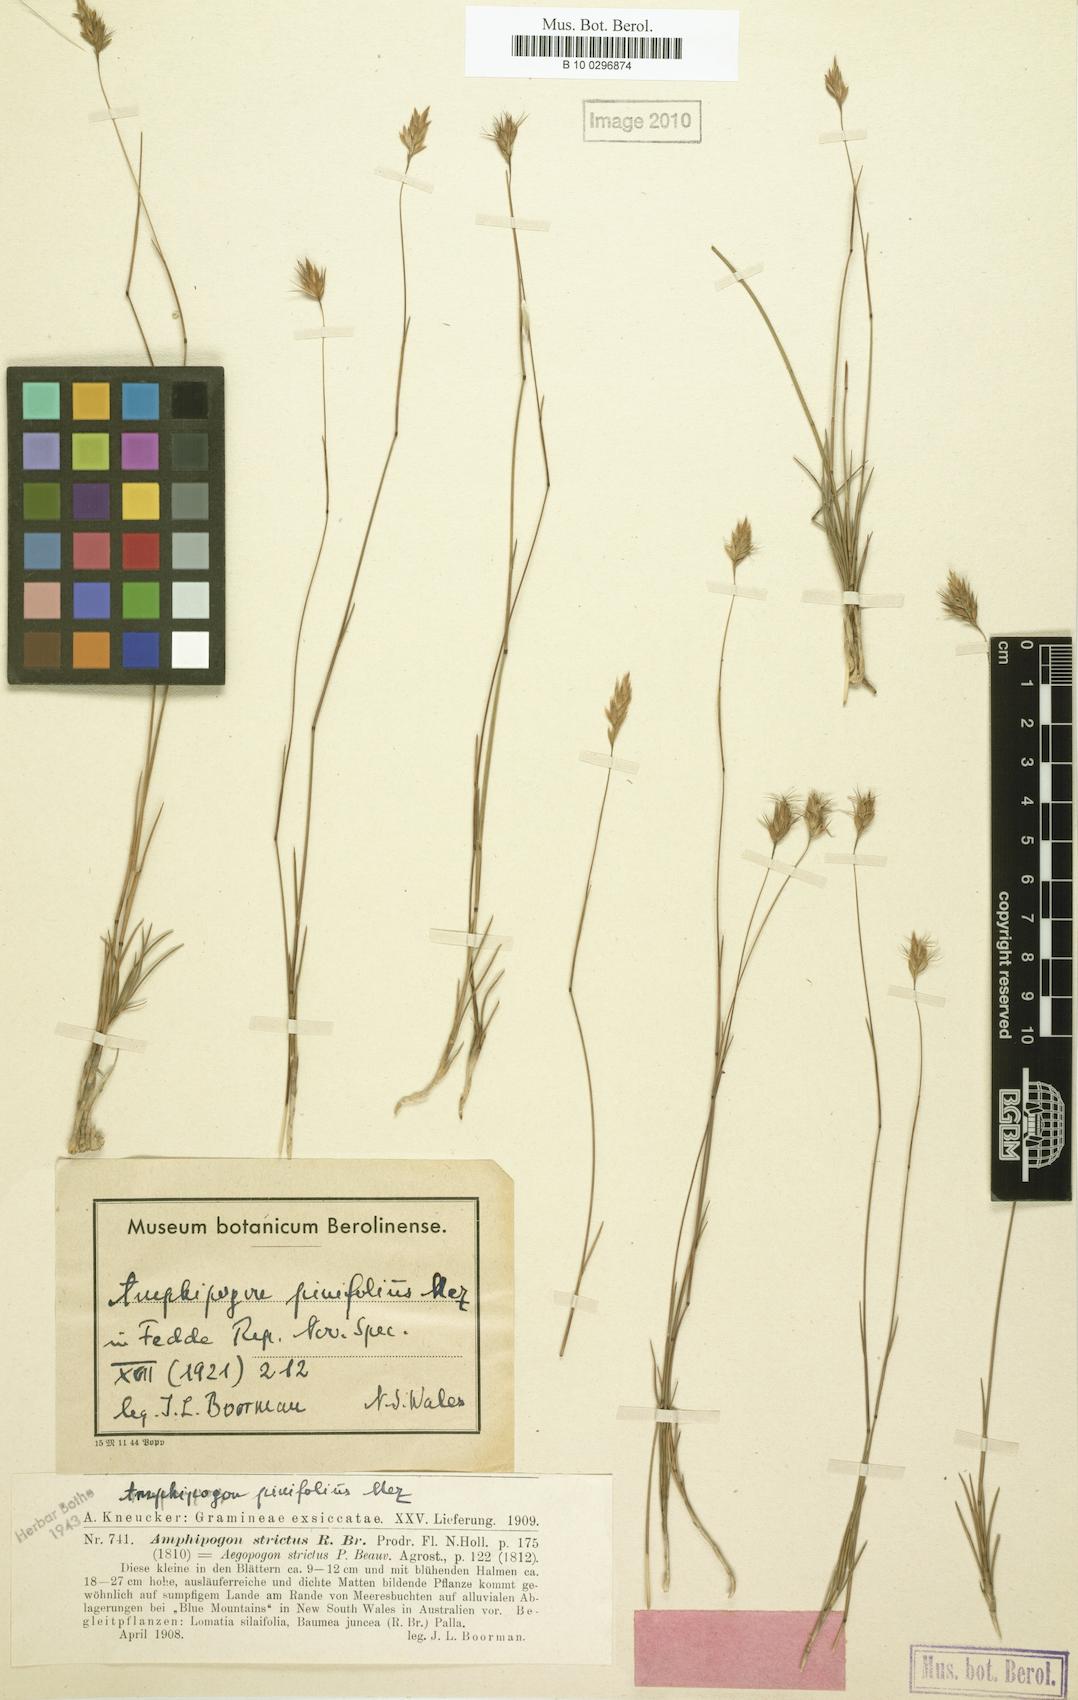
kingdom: Plantae
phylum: Tracheophyta
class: Liliopsida
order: Poales
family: Poaceae
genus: Amphipogon
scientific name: Amphipogon strictus
